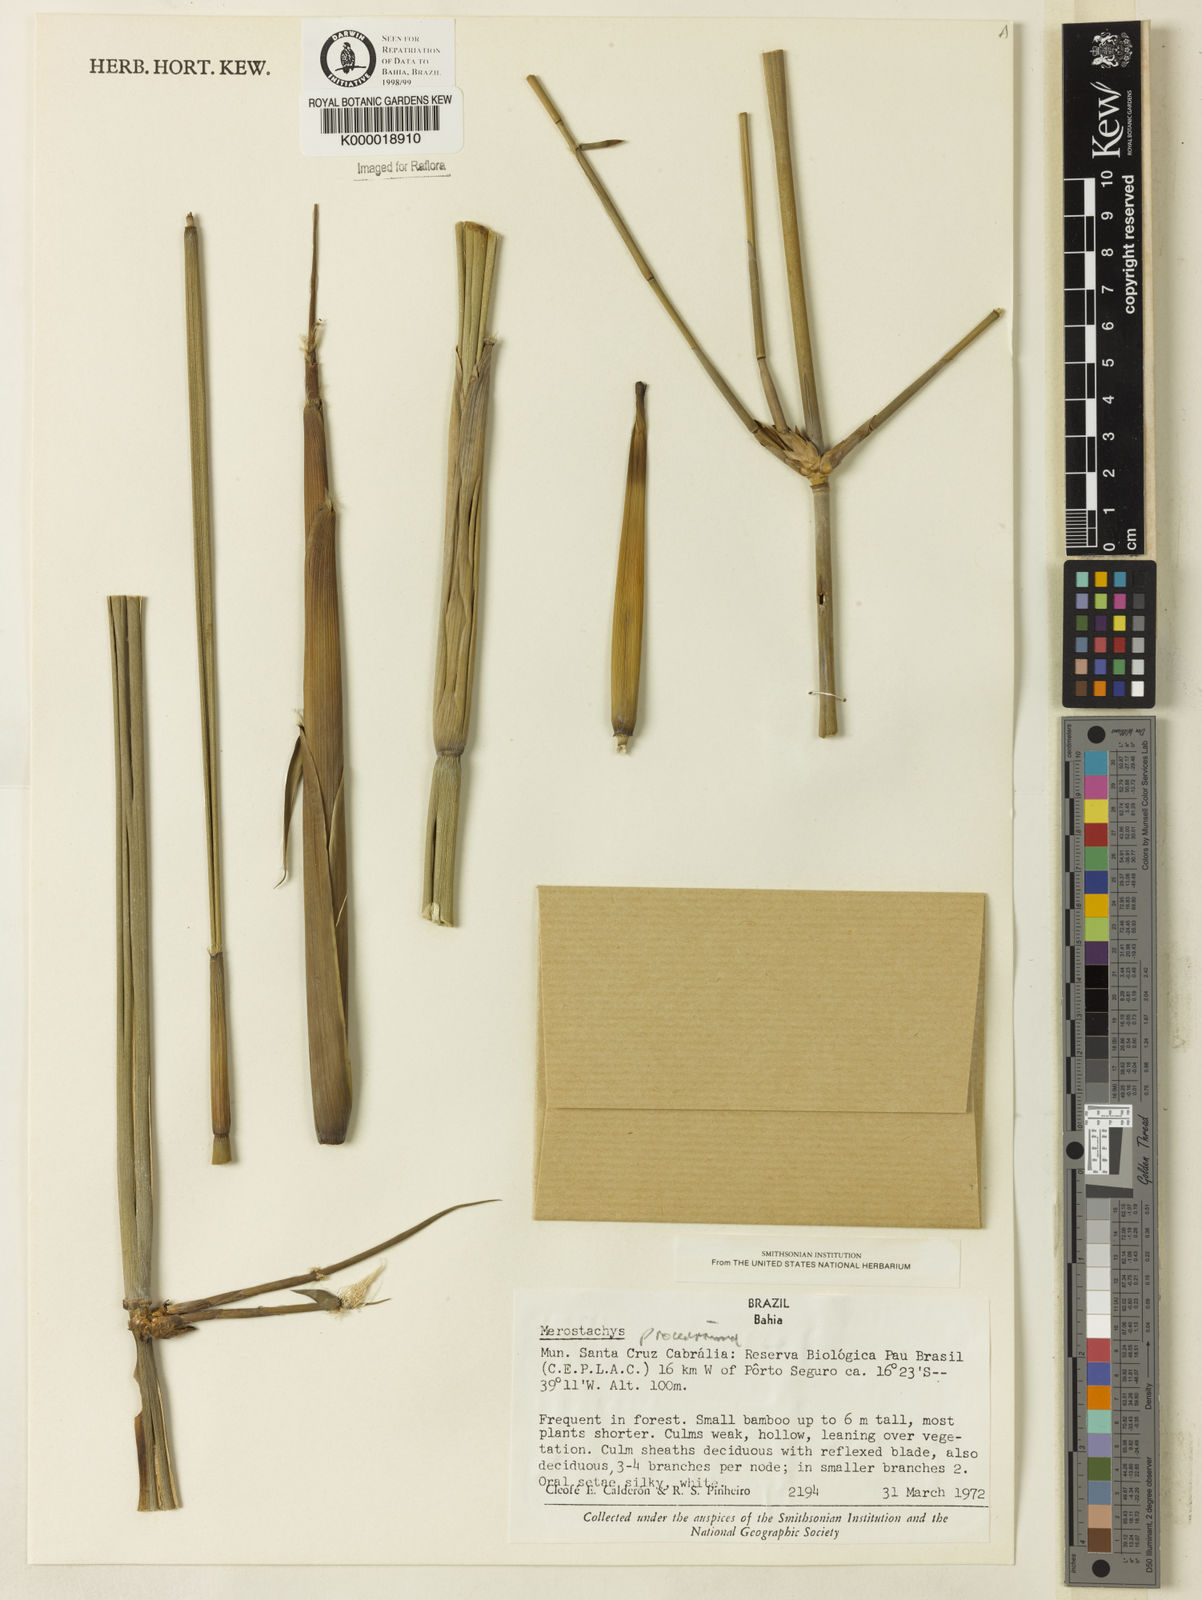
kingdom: Plantae
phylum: Tracheophyta
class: Liliopsida
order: Poales
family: Poaceae
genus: Merostachys
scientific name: Merostachys procerrima
